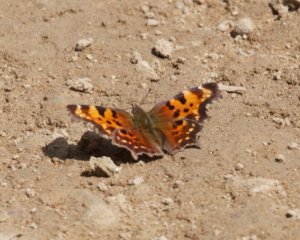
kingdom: Animalia
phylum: Arthropoda
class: Insecta
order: Lepidoptera
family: Nymphalidae
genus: Polygonia
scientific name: Polygonia faunus
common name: Green Comma
